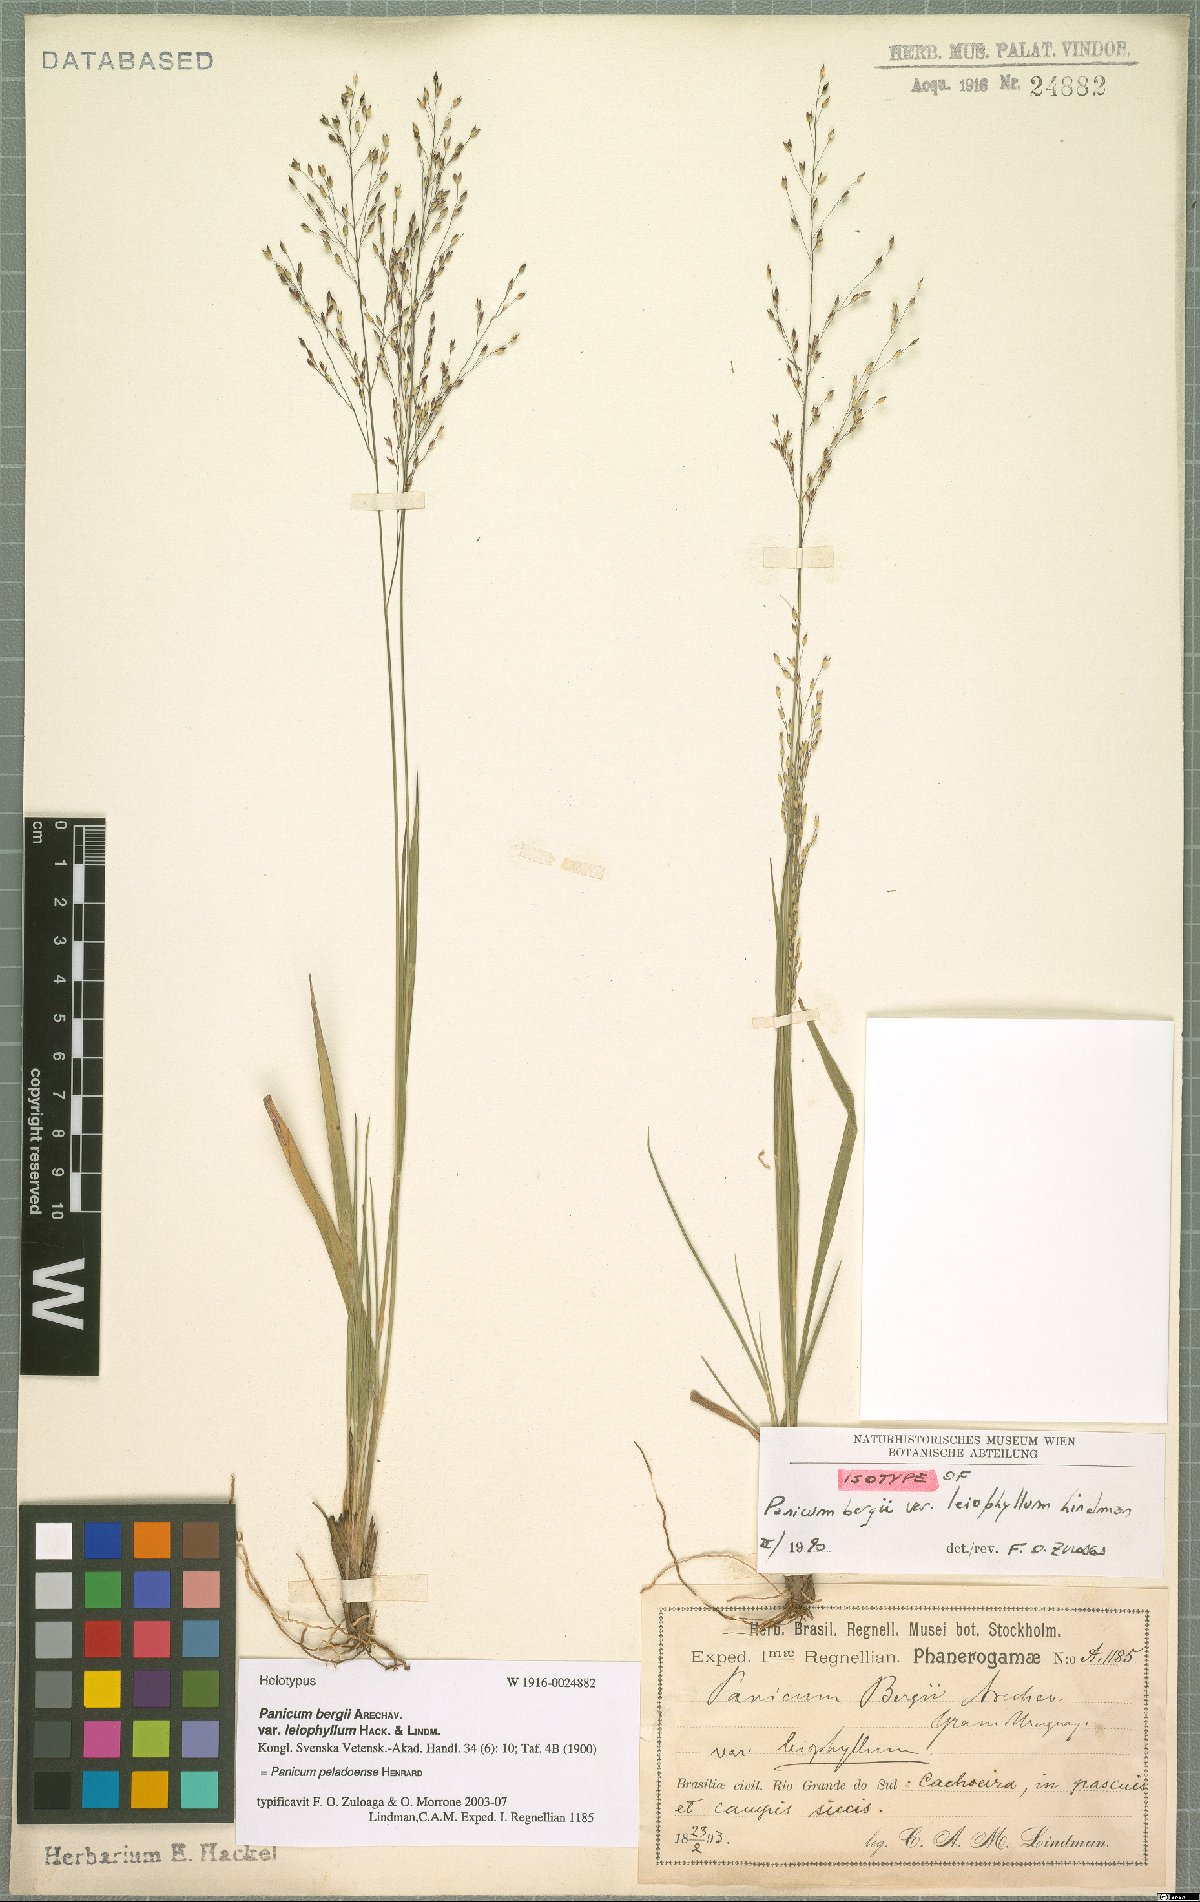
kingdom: Plantae
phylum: Tracheophyta
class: Liliopsida
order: Poales
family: Poaceae
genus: Panicum
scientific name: Panicum peladoense
